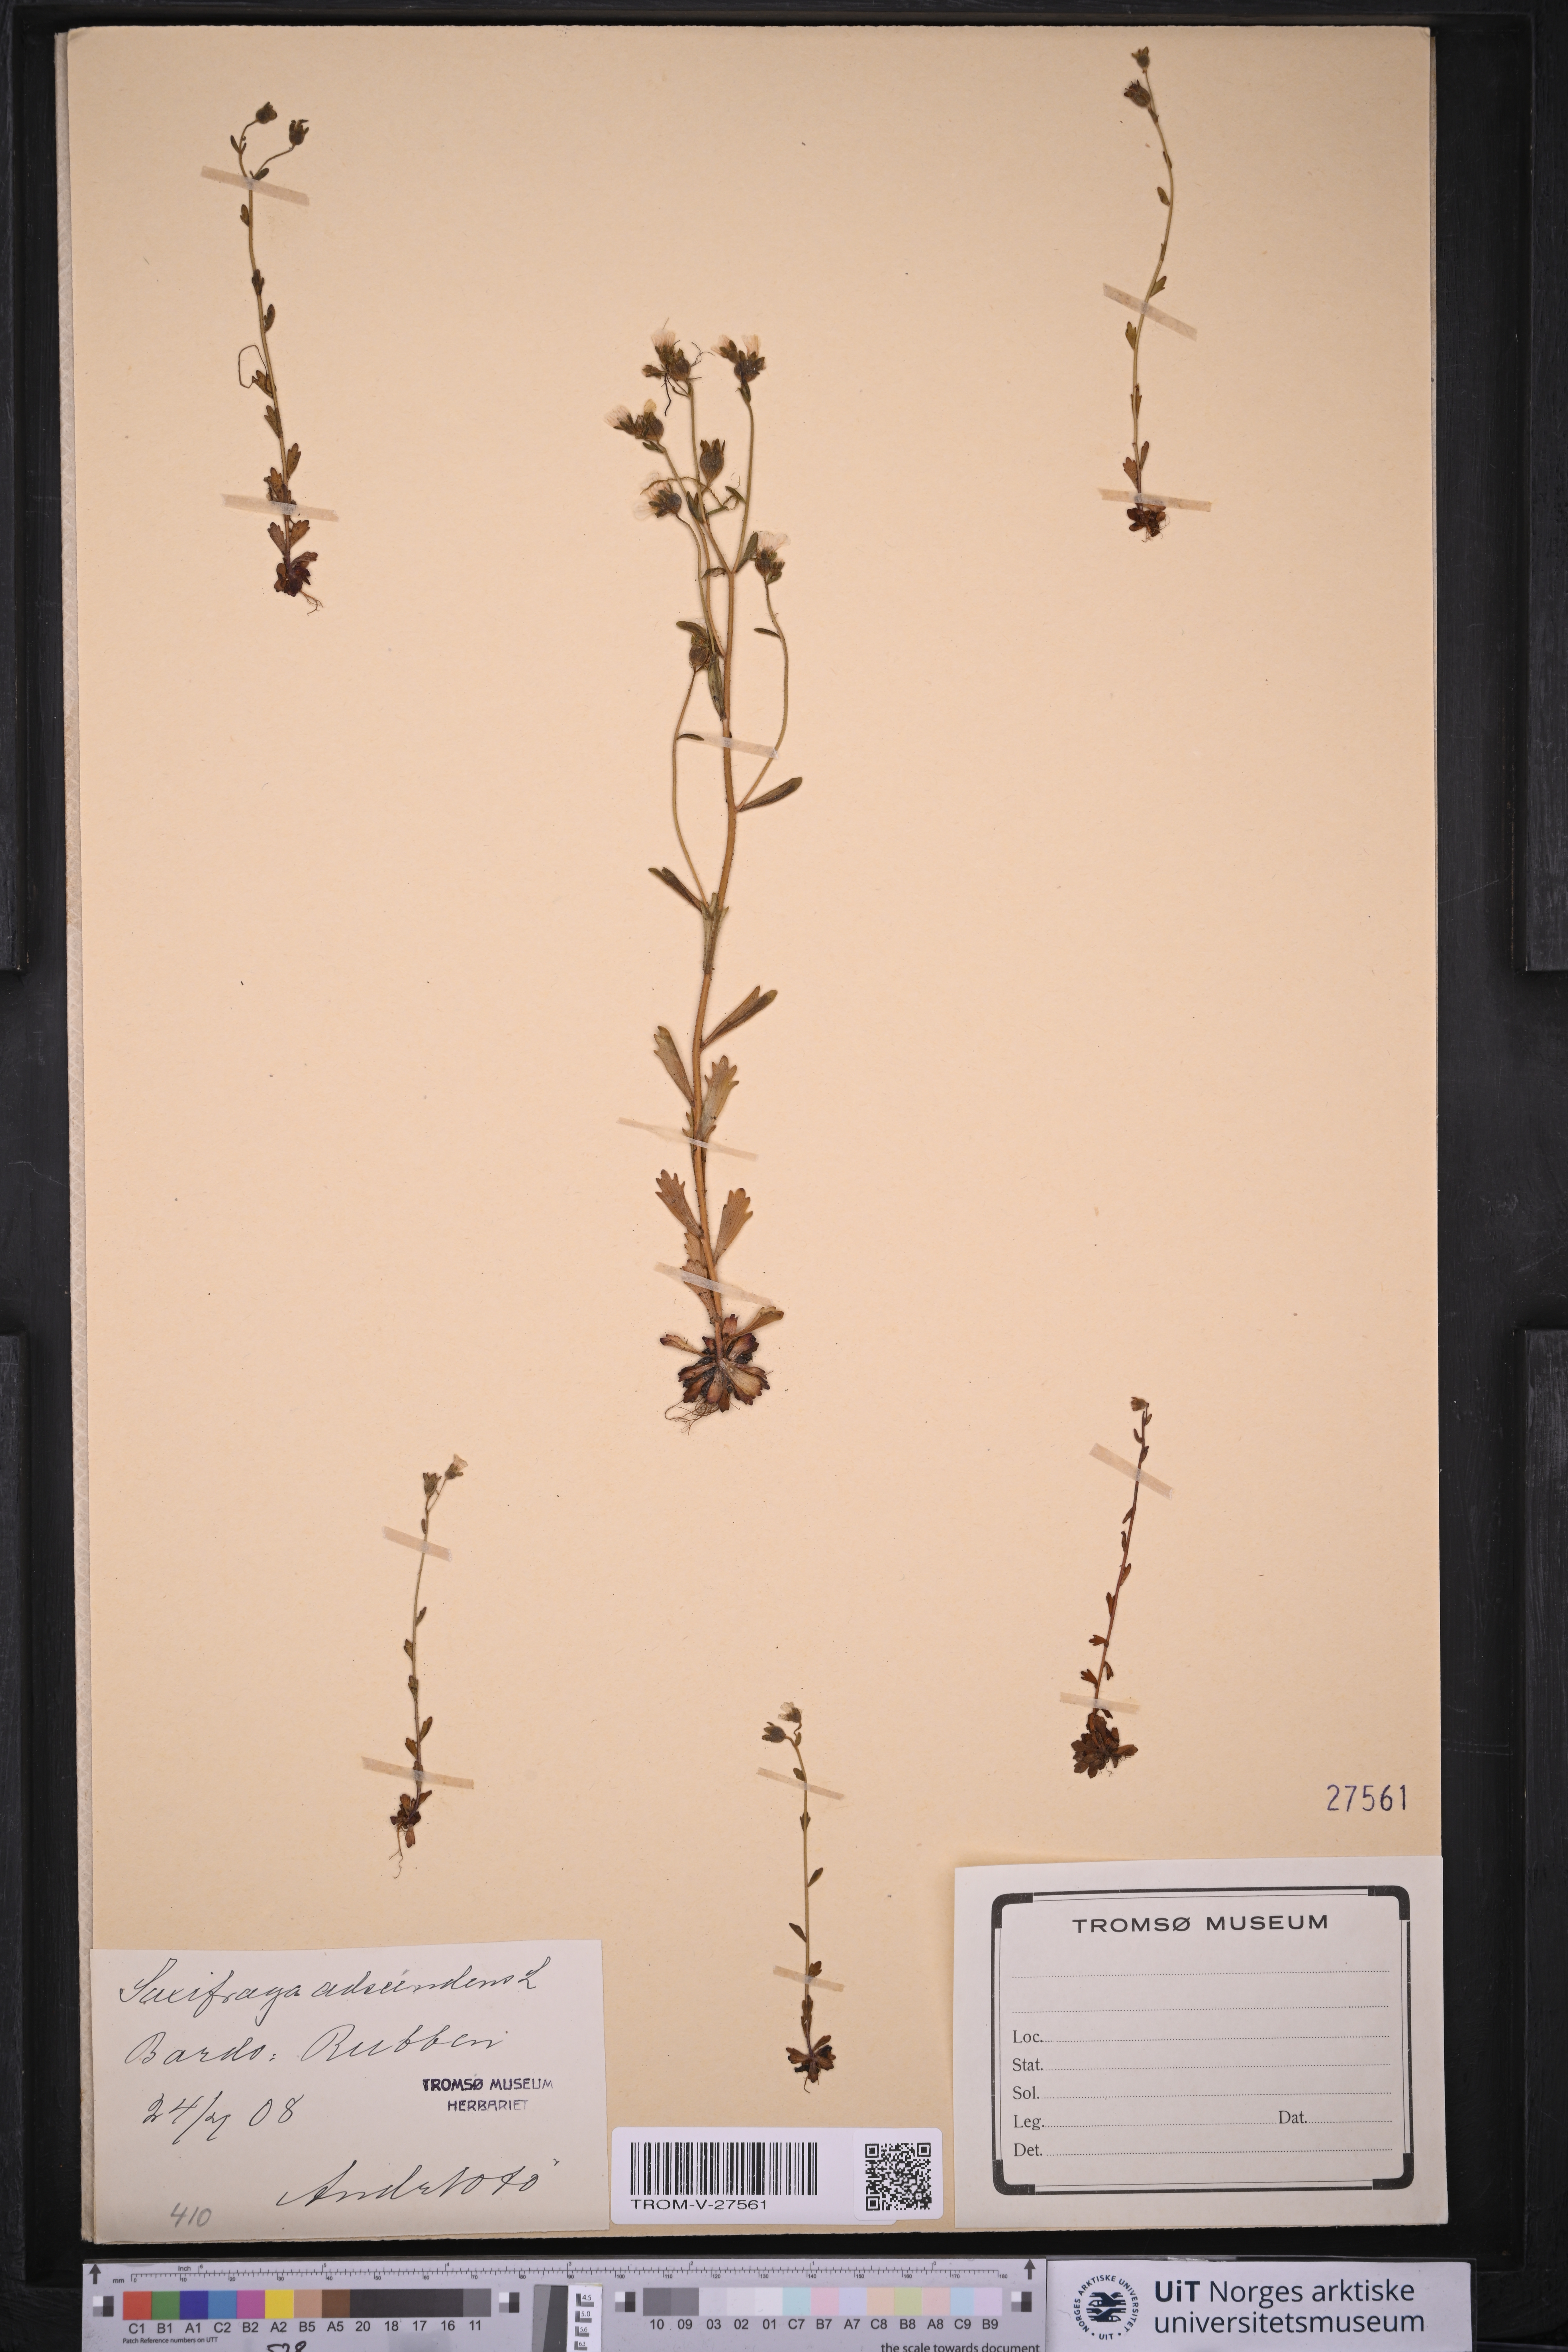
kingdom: Plantae
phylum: Tracheophyta
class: Magnoliopsida
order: Saxifragales
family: Saxifragaceae
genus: Saxifraga
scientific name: Saxifraga adscendens
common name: Ascending saxifrage
